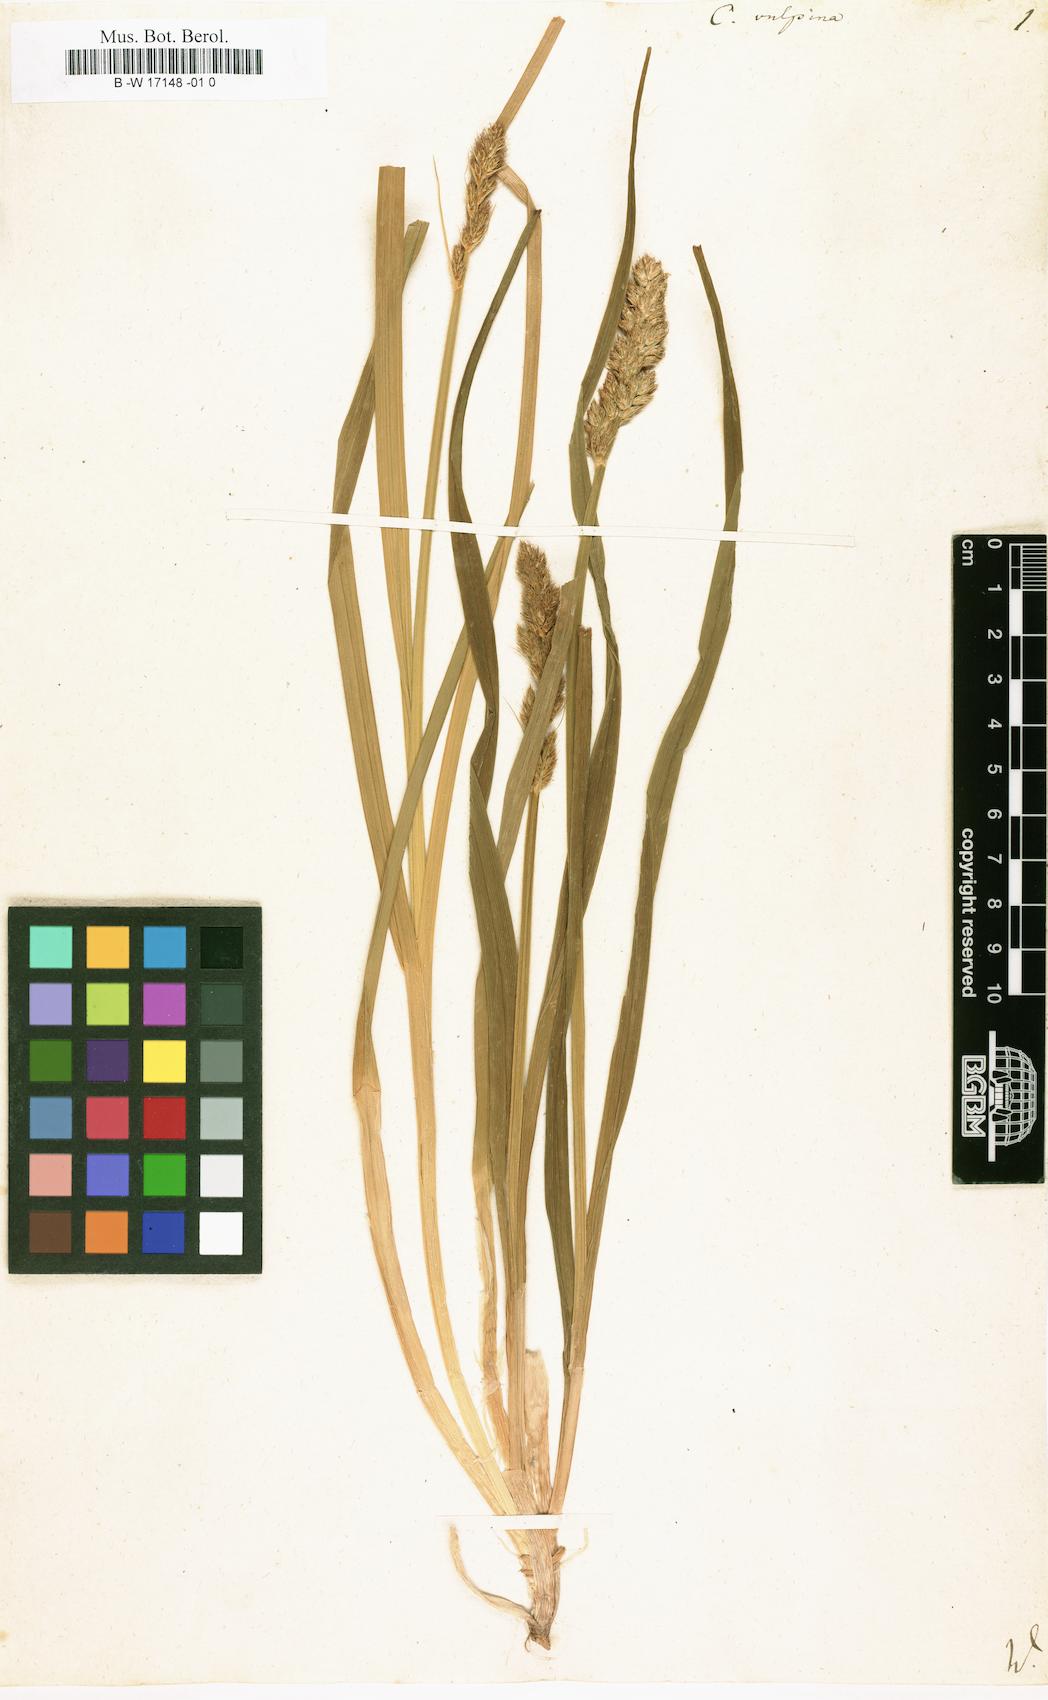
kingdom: Plantae
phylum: Tracheophyta
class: Liliopsida
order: Poales
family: Cyperaceae
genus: Carex
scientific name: Carex vulpina
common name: True fox-sedge
